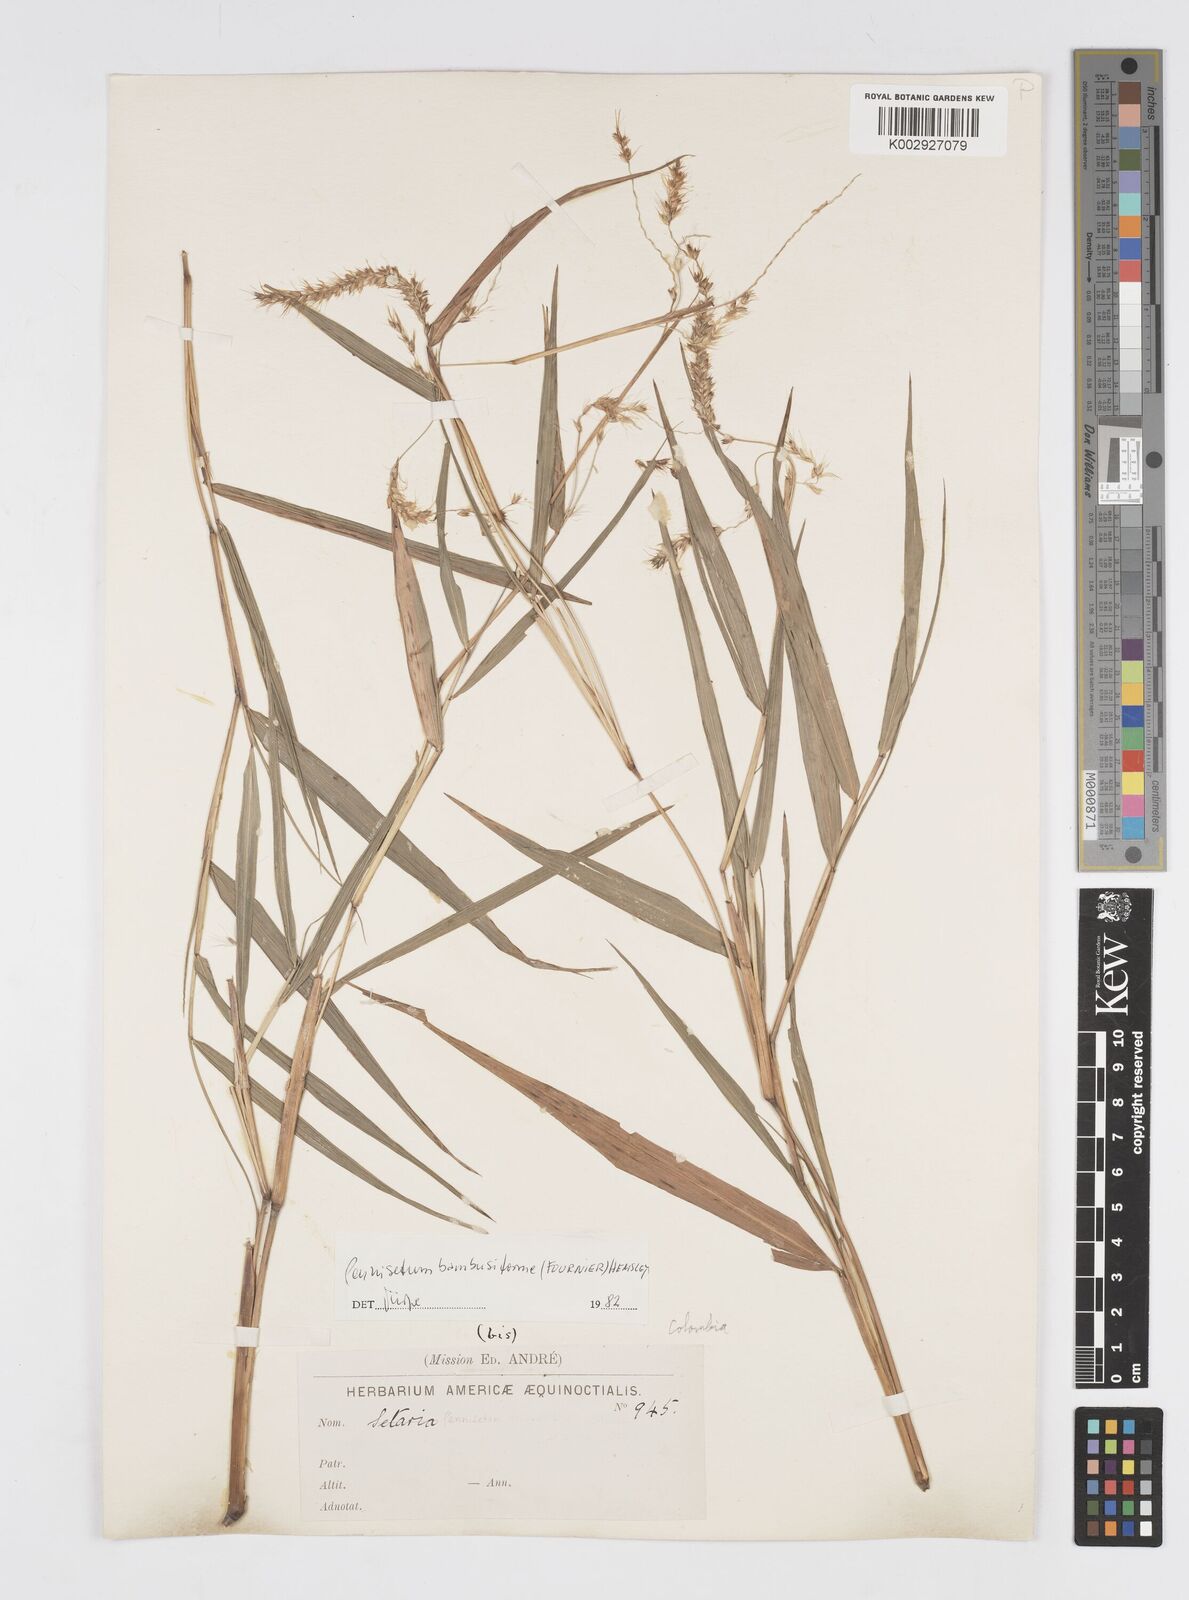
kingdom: Plantae
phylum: Tracheophyta
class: Liliopsida
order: Poales
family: Poaceae
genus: Cenchrus
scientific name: Cenchrus tristachyus
